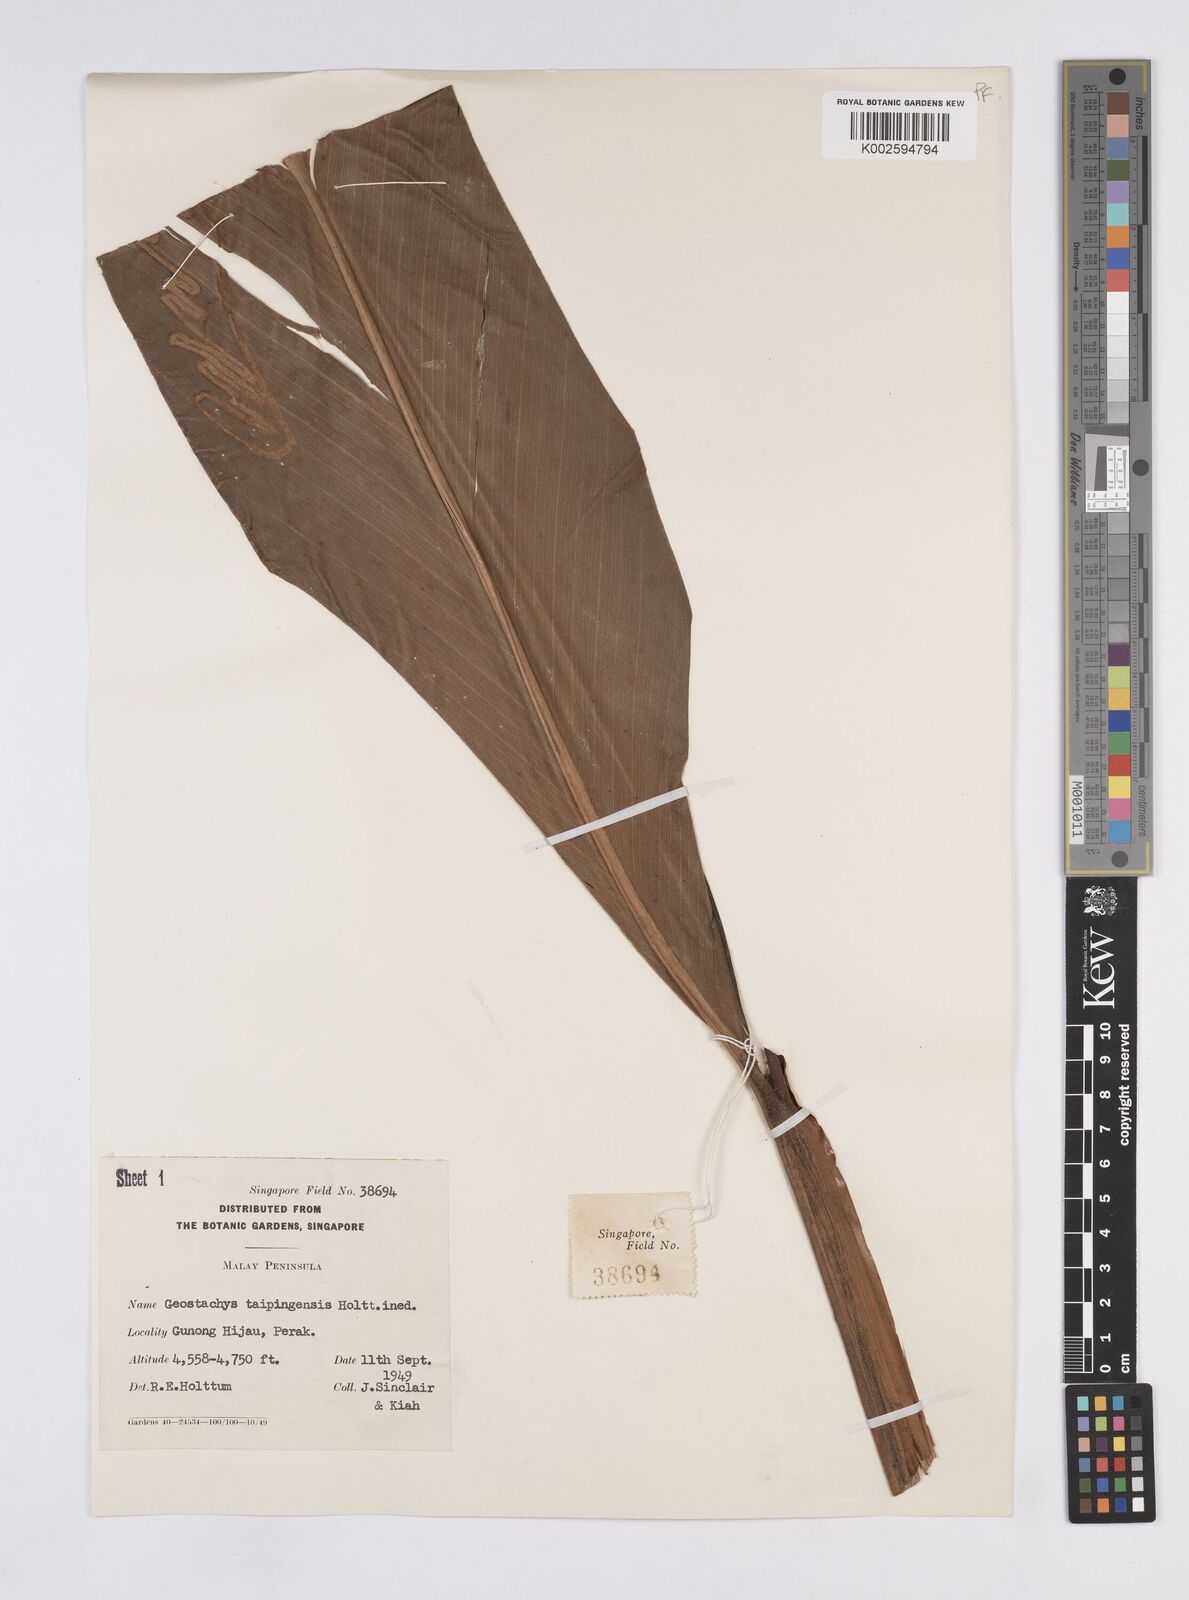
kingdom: Plantae
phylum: Tracheophyta
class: Liliopsida
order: Zingiberales
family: Zingiberaceae
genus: Geostachys
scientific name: Geostachys taipingensis
